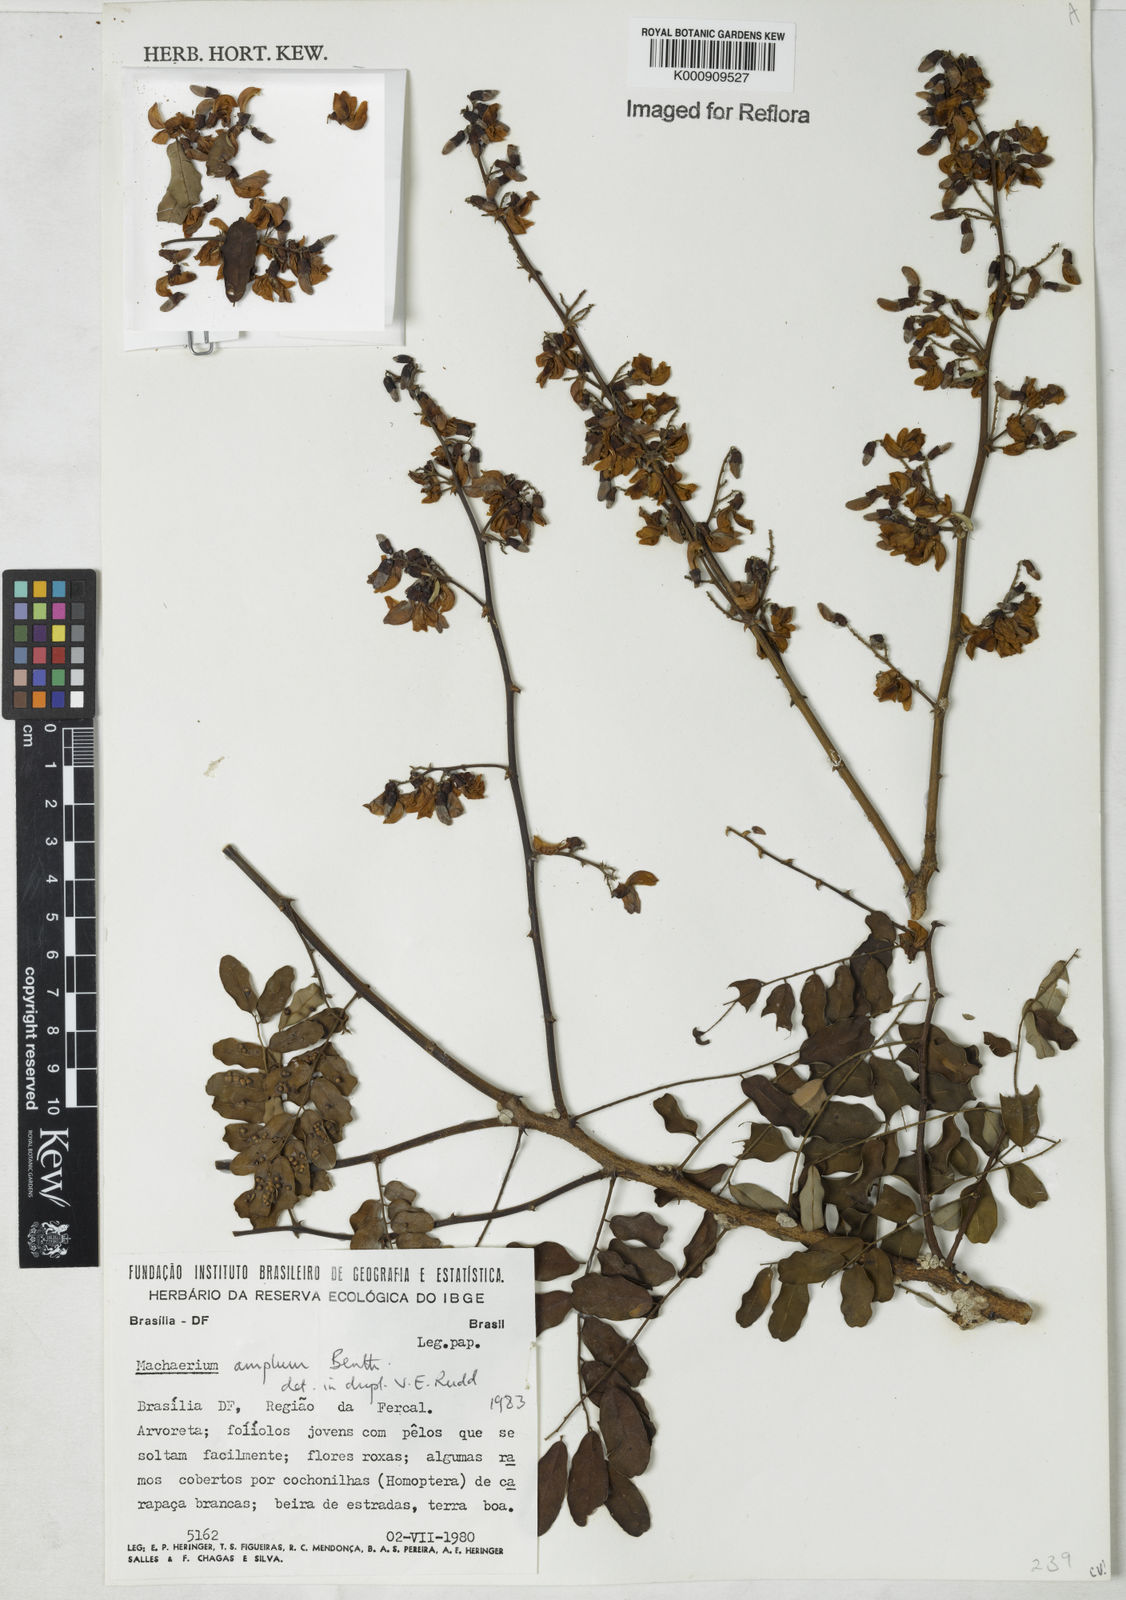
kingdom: Plantae
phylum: Tracheophyta
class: Magnoliopsida
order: Fabales
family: Fabaceae
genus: Machaerium
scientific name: Machaerium amplum
